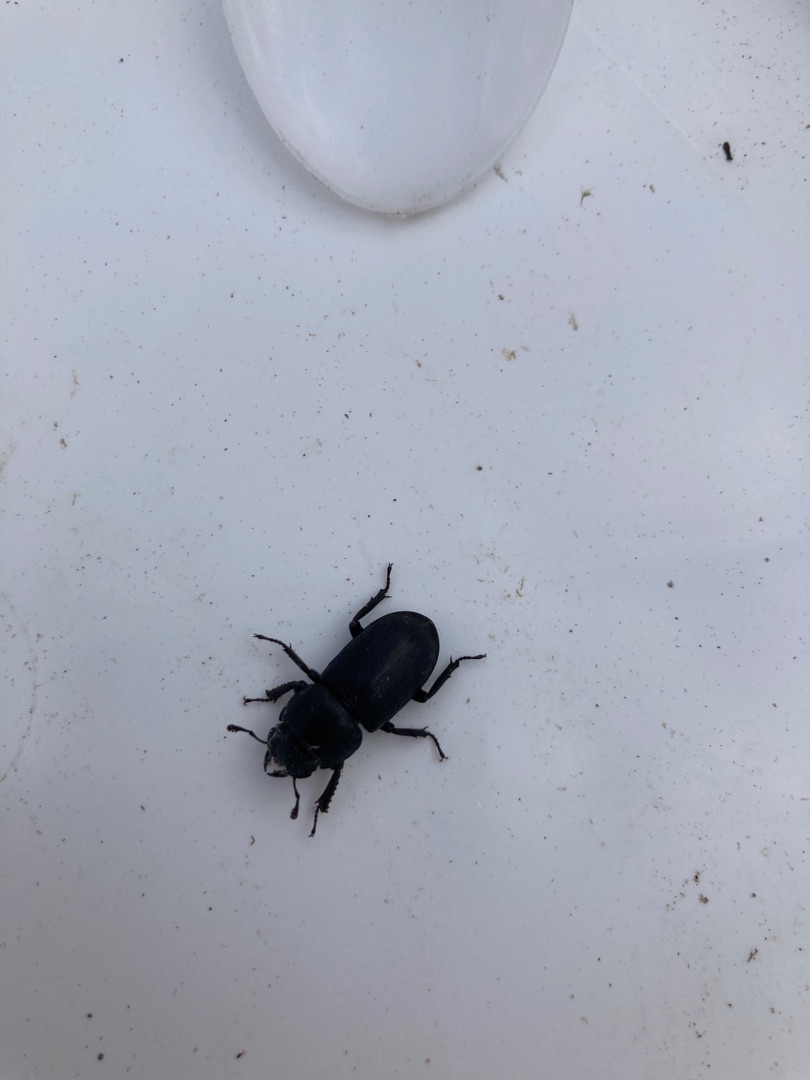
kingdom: Animalia
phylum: Arthropoda
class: Insecta
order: Coleoptera
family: Lucanidae
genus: Dorcus
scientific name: Dorcus parallelipipedus
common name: Bøghjort
